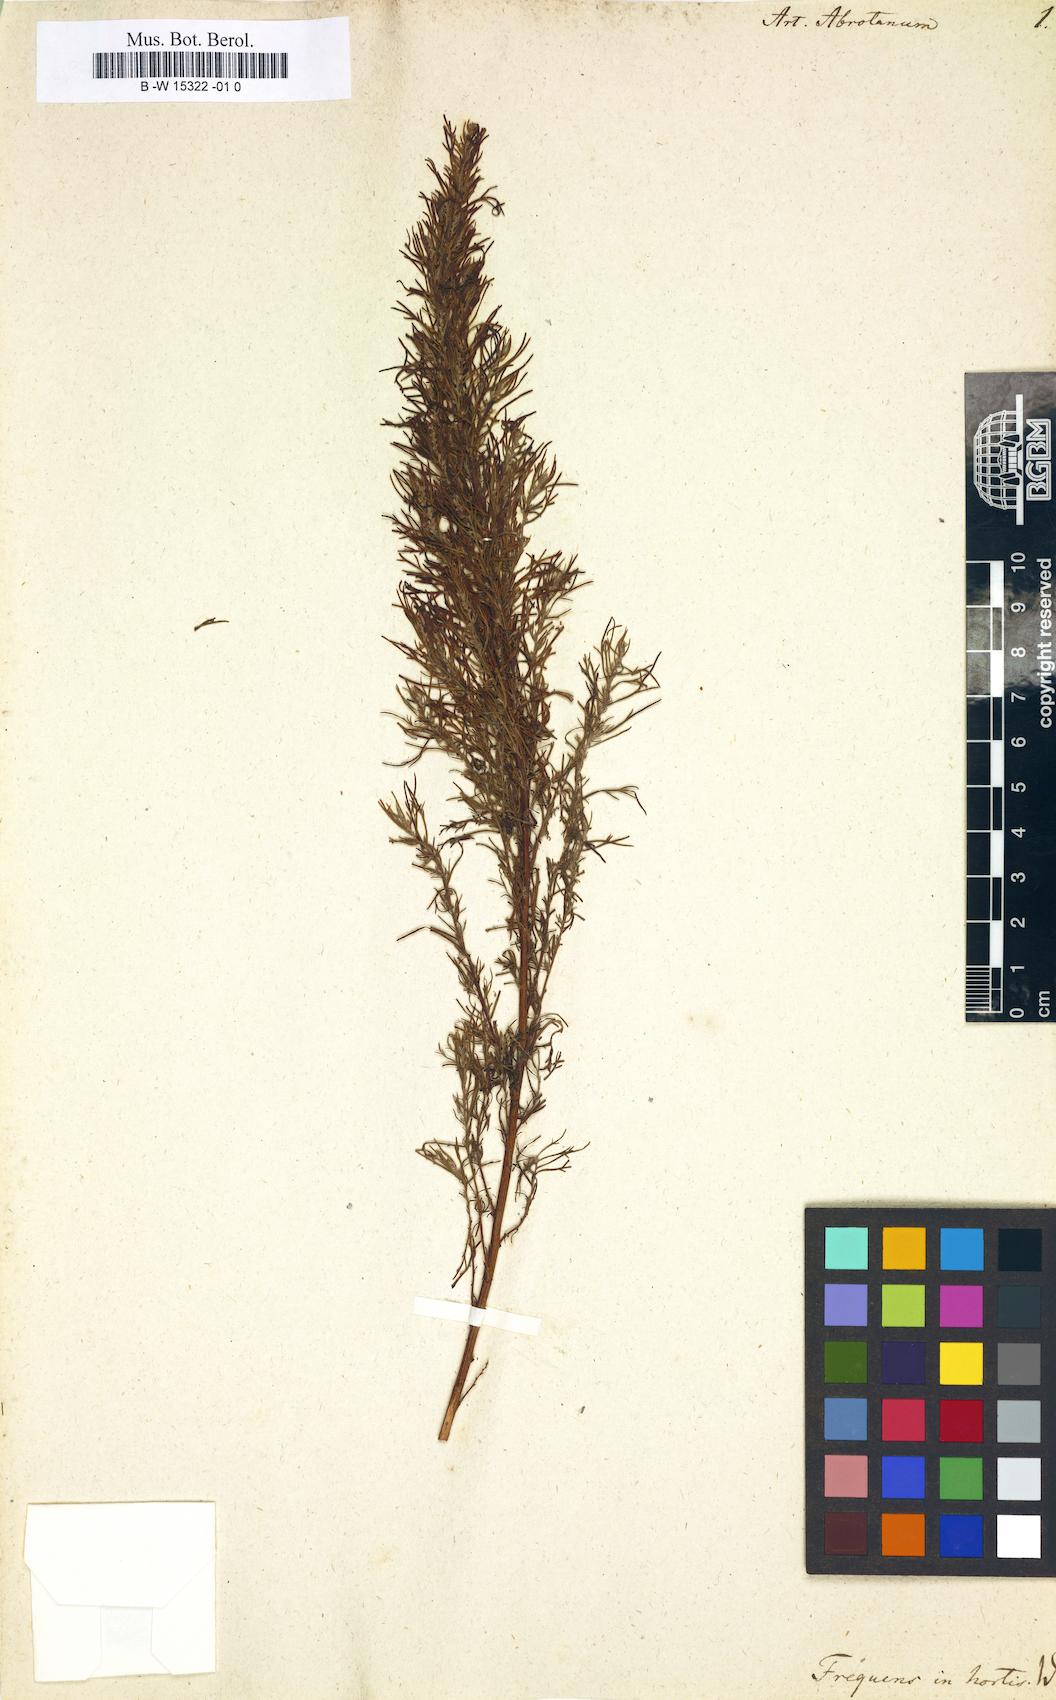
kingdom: Plantae
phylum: Tracheophyta
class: Magnoliopsida
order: Asterales
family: Asteraceae
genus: Artemisia
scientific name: Artemisia abrotanum
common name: Southernwood
